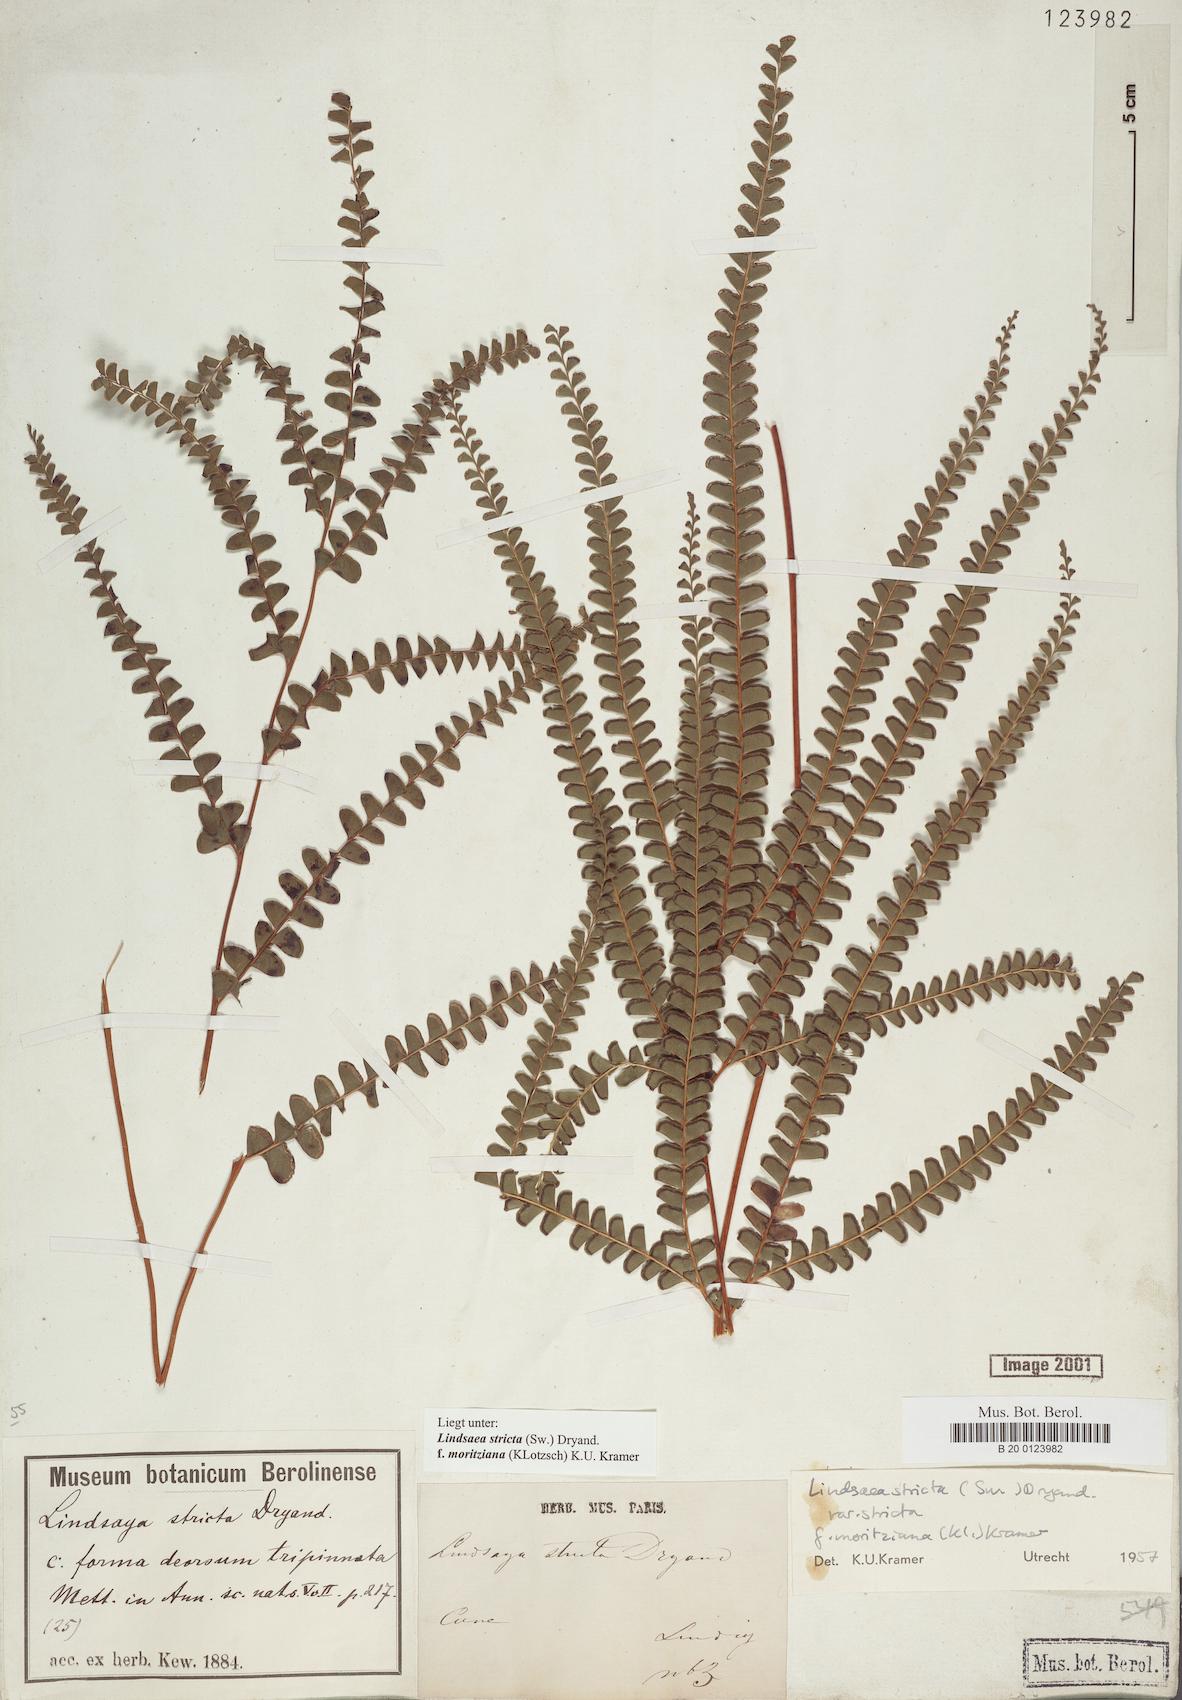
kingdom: Plantae
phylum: Tracheophyta
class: Polypodiopsida
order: Polypodiales
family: Lindsaeaceae
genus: Lindsaea
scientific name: Lindsaea guianensis
